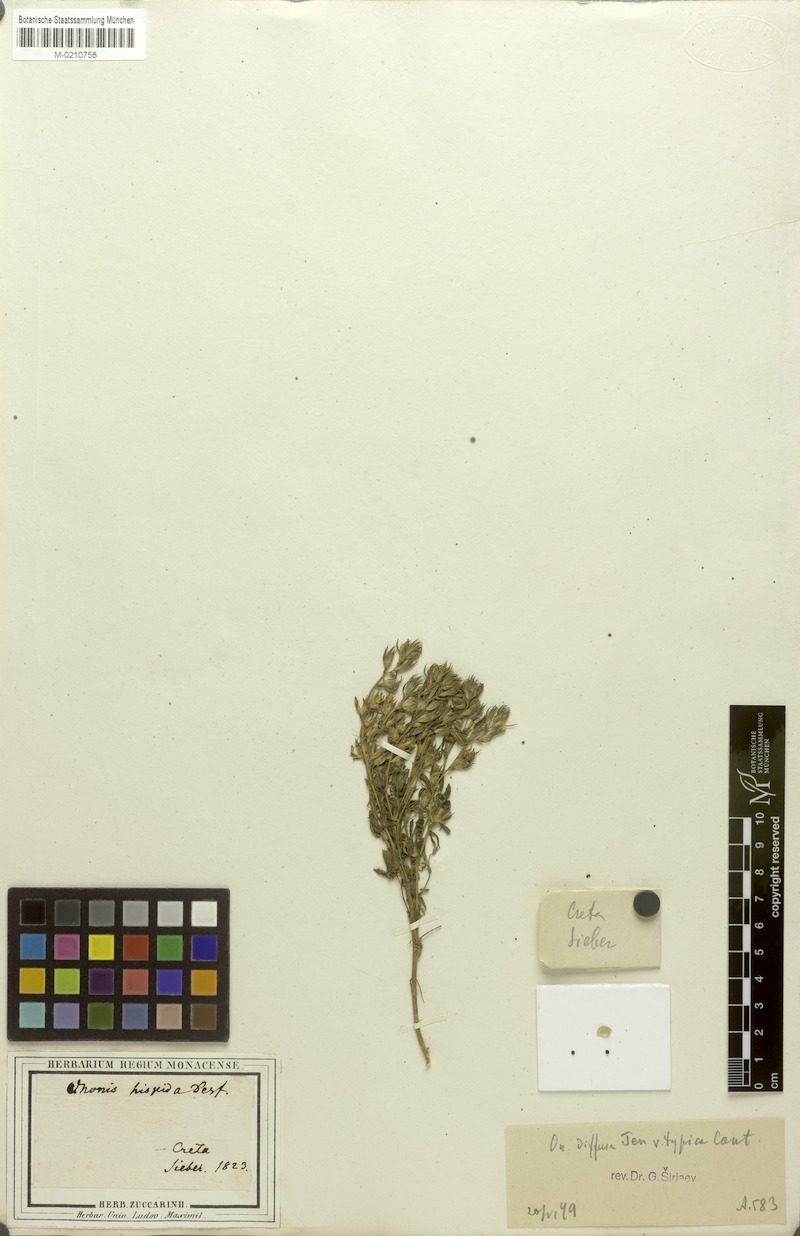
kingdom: Plantae
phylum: Tracheophyta
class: Magnoliopsida
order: Fabales
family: Fabaceae
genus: Ononis
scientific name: Ononis diffusa
